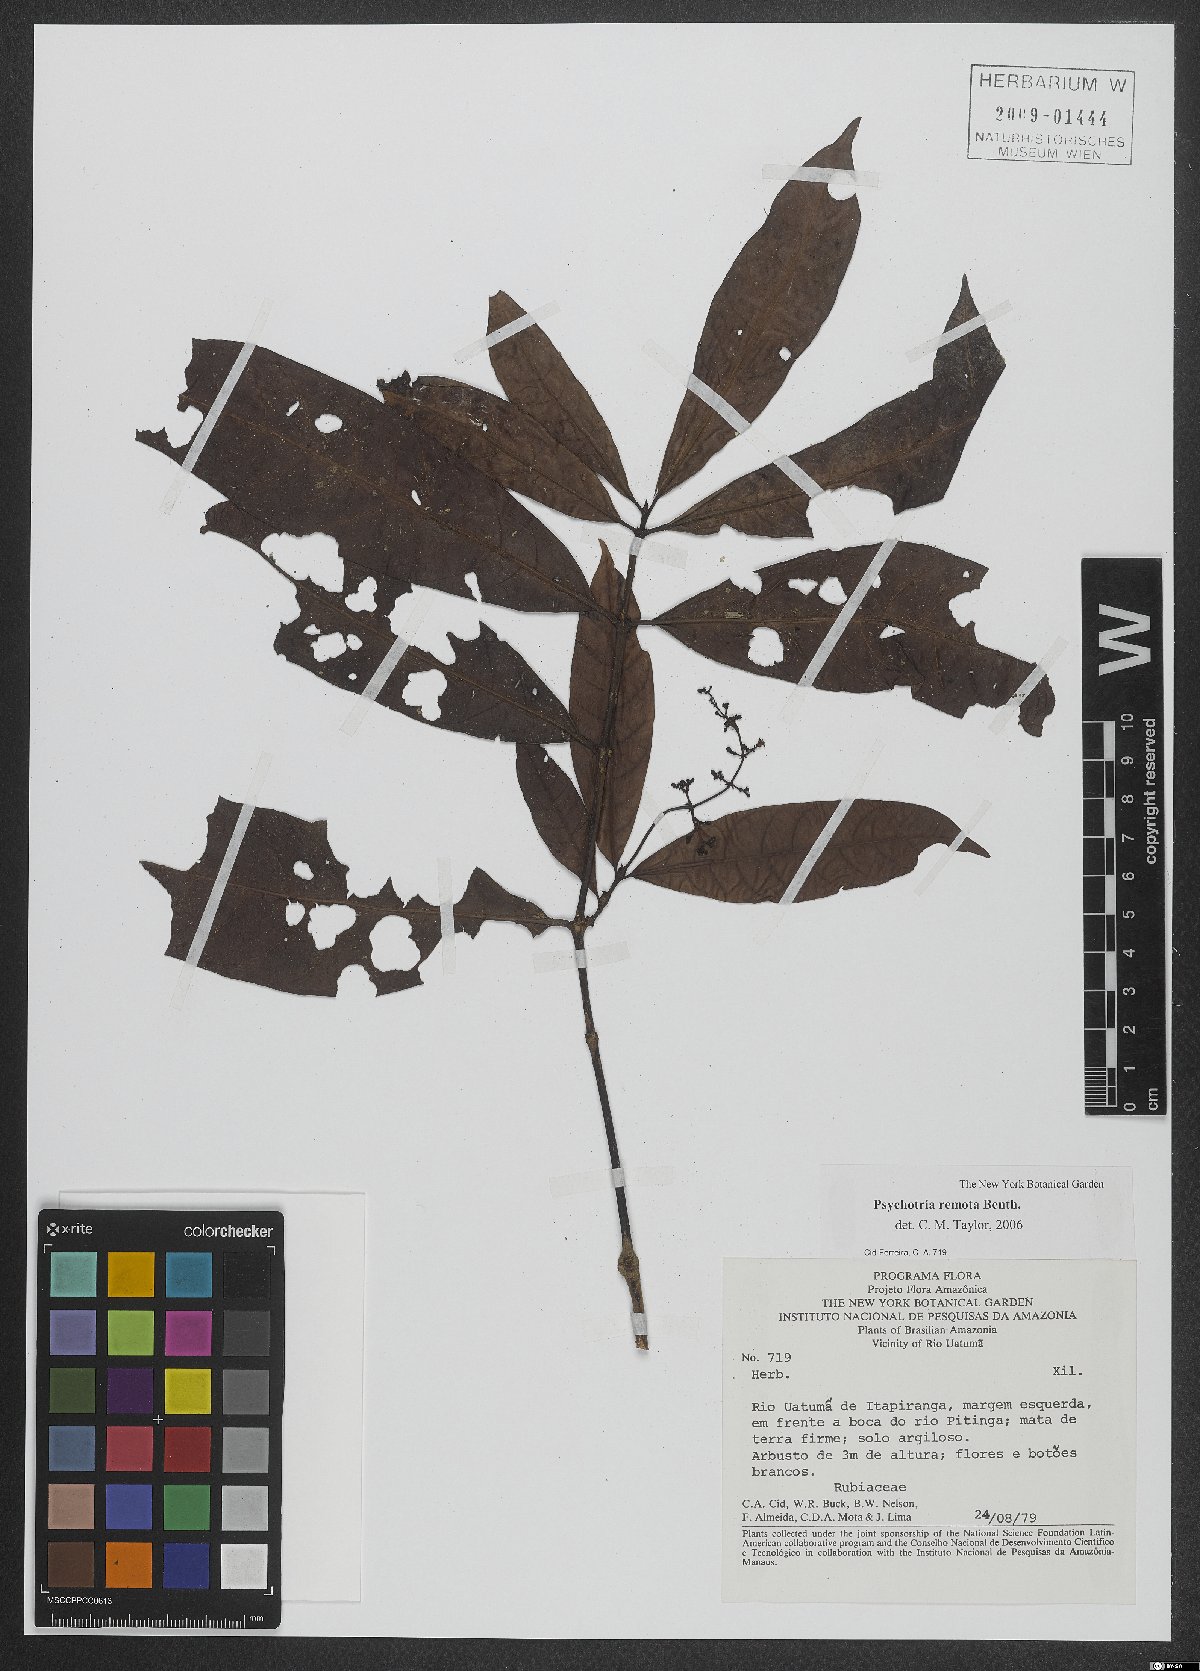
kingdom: Plantae
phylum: Tracheophyta
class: Magnoliopsida
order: Gentianales
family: Rubiaceae
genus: Psychotria
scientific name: Psychotria remota
